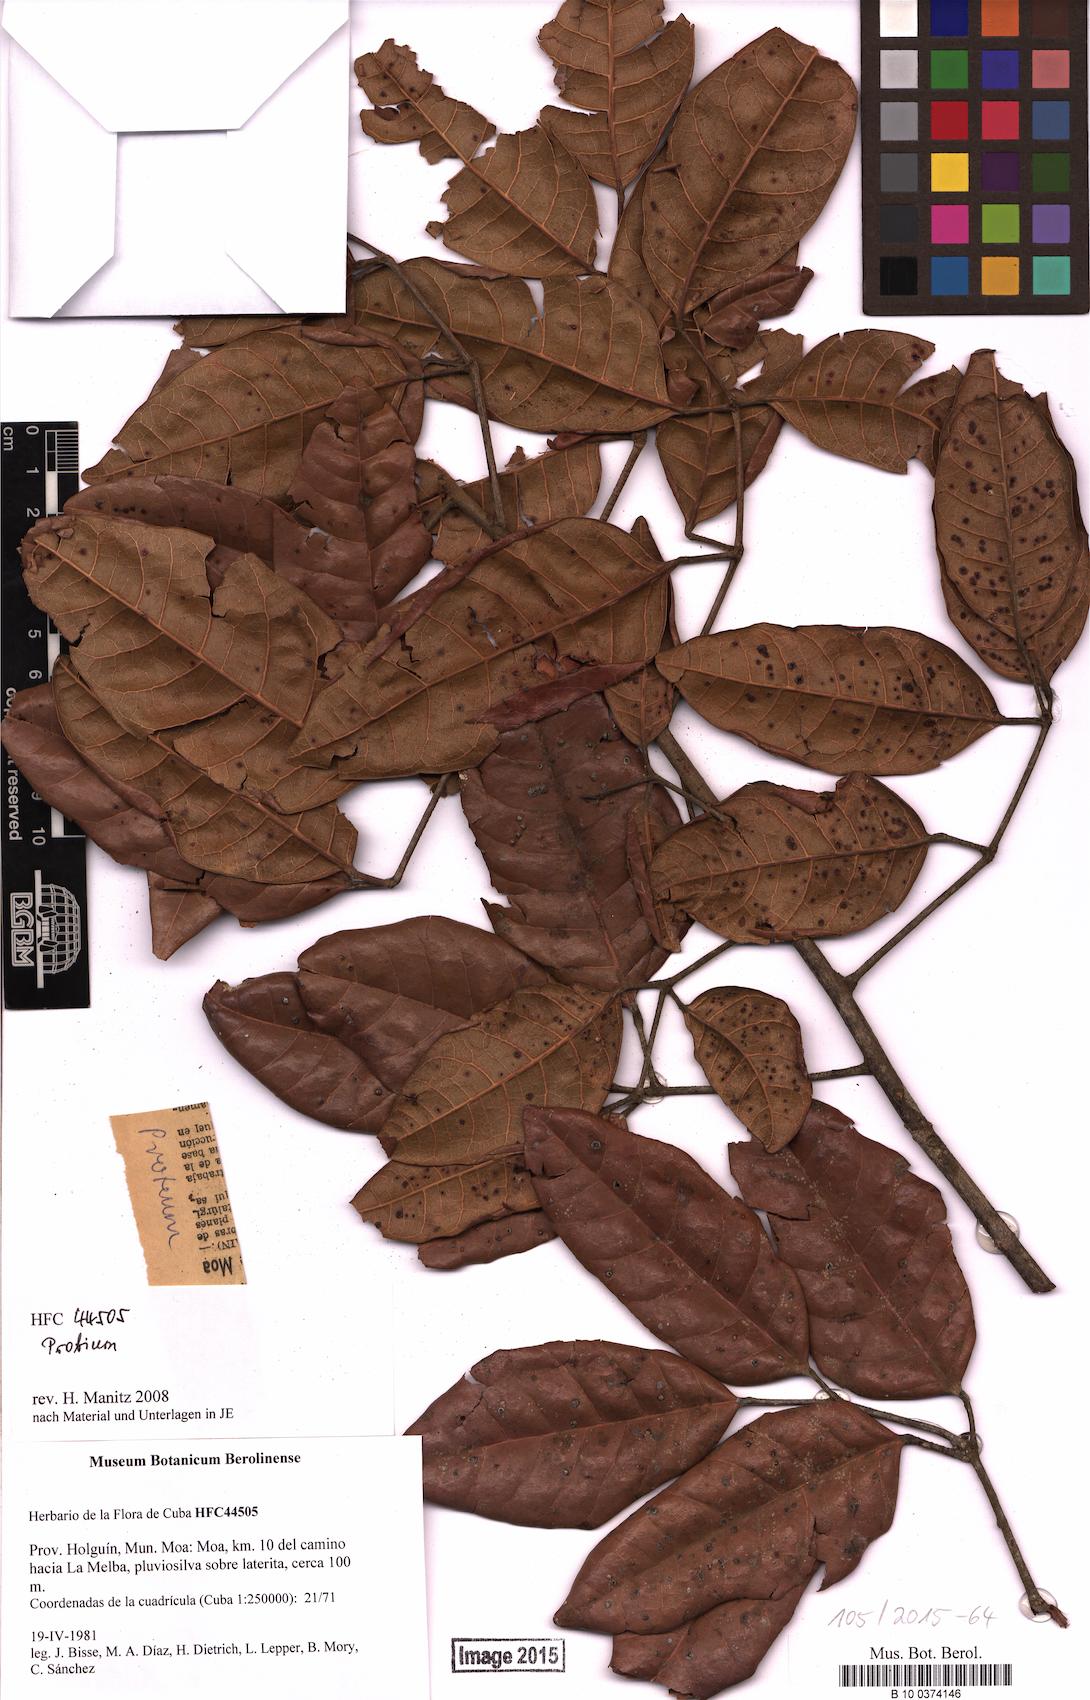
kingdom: Plantae
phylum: Tracheophyta
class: Magnoliopsida
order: Sapindales
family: Burseraceae
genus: Protium
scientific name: Protium
